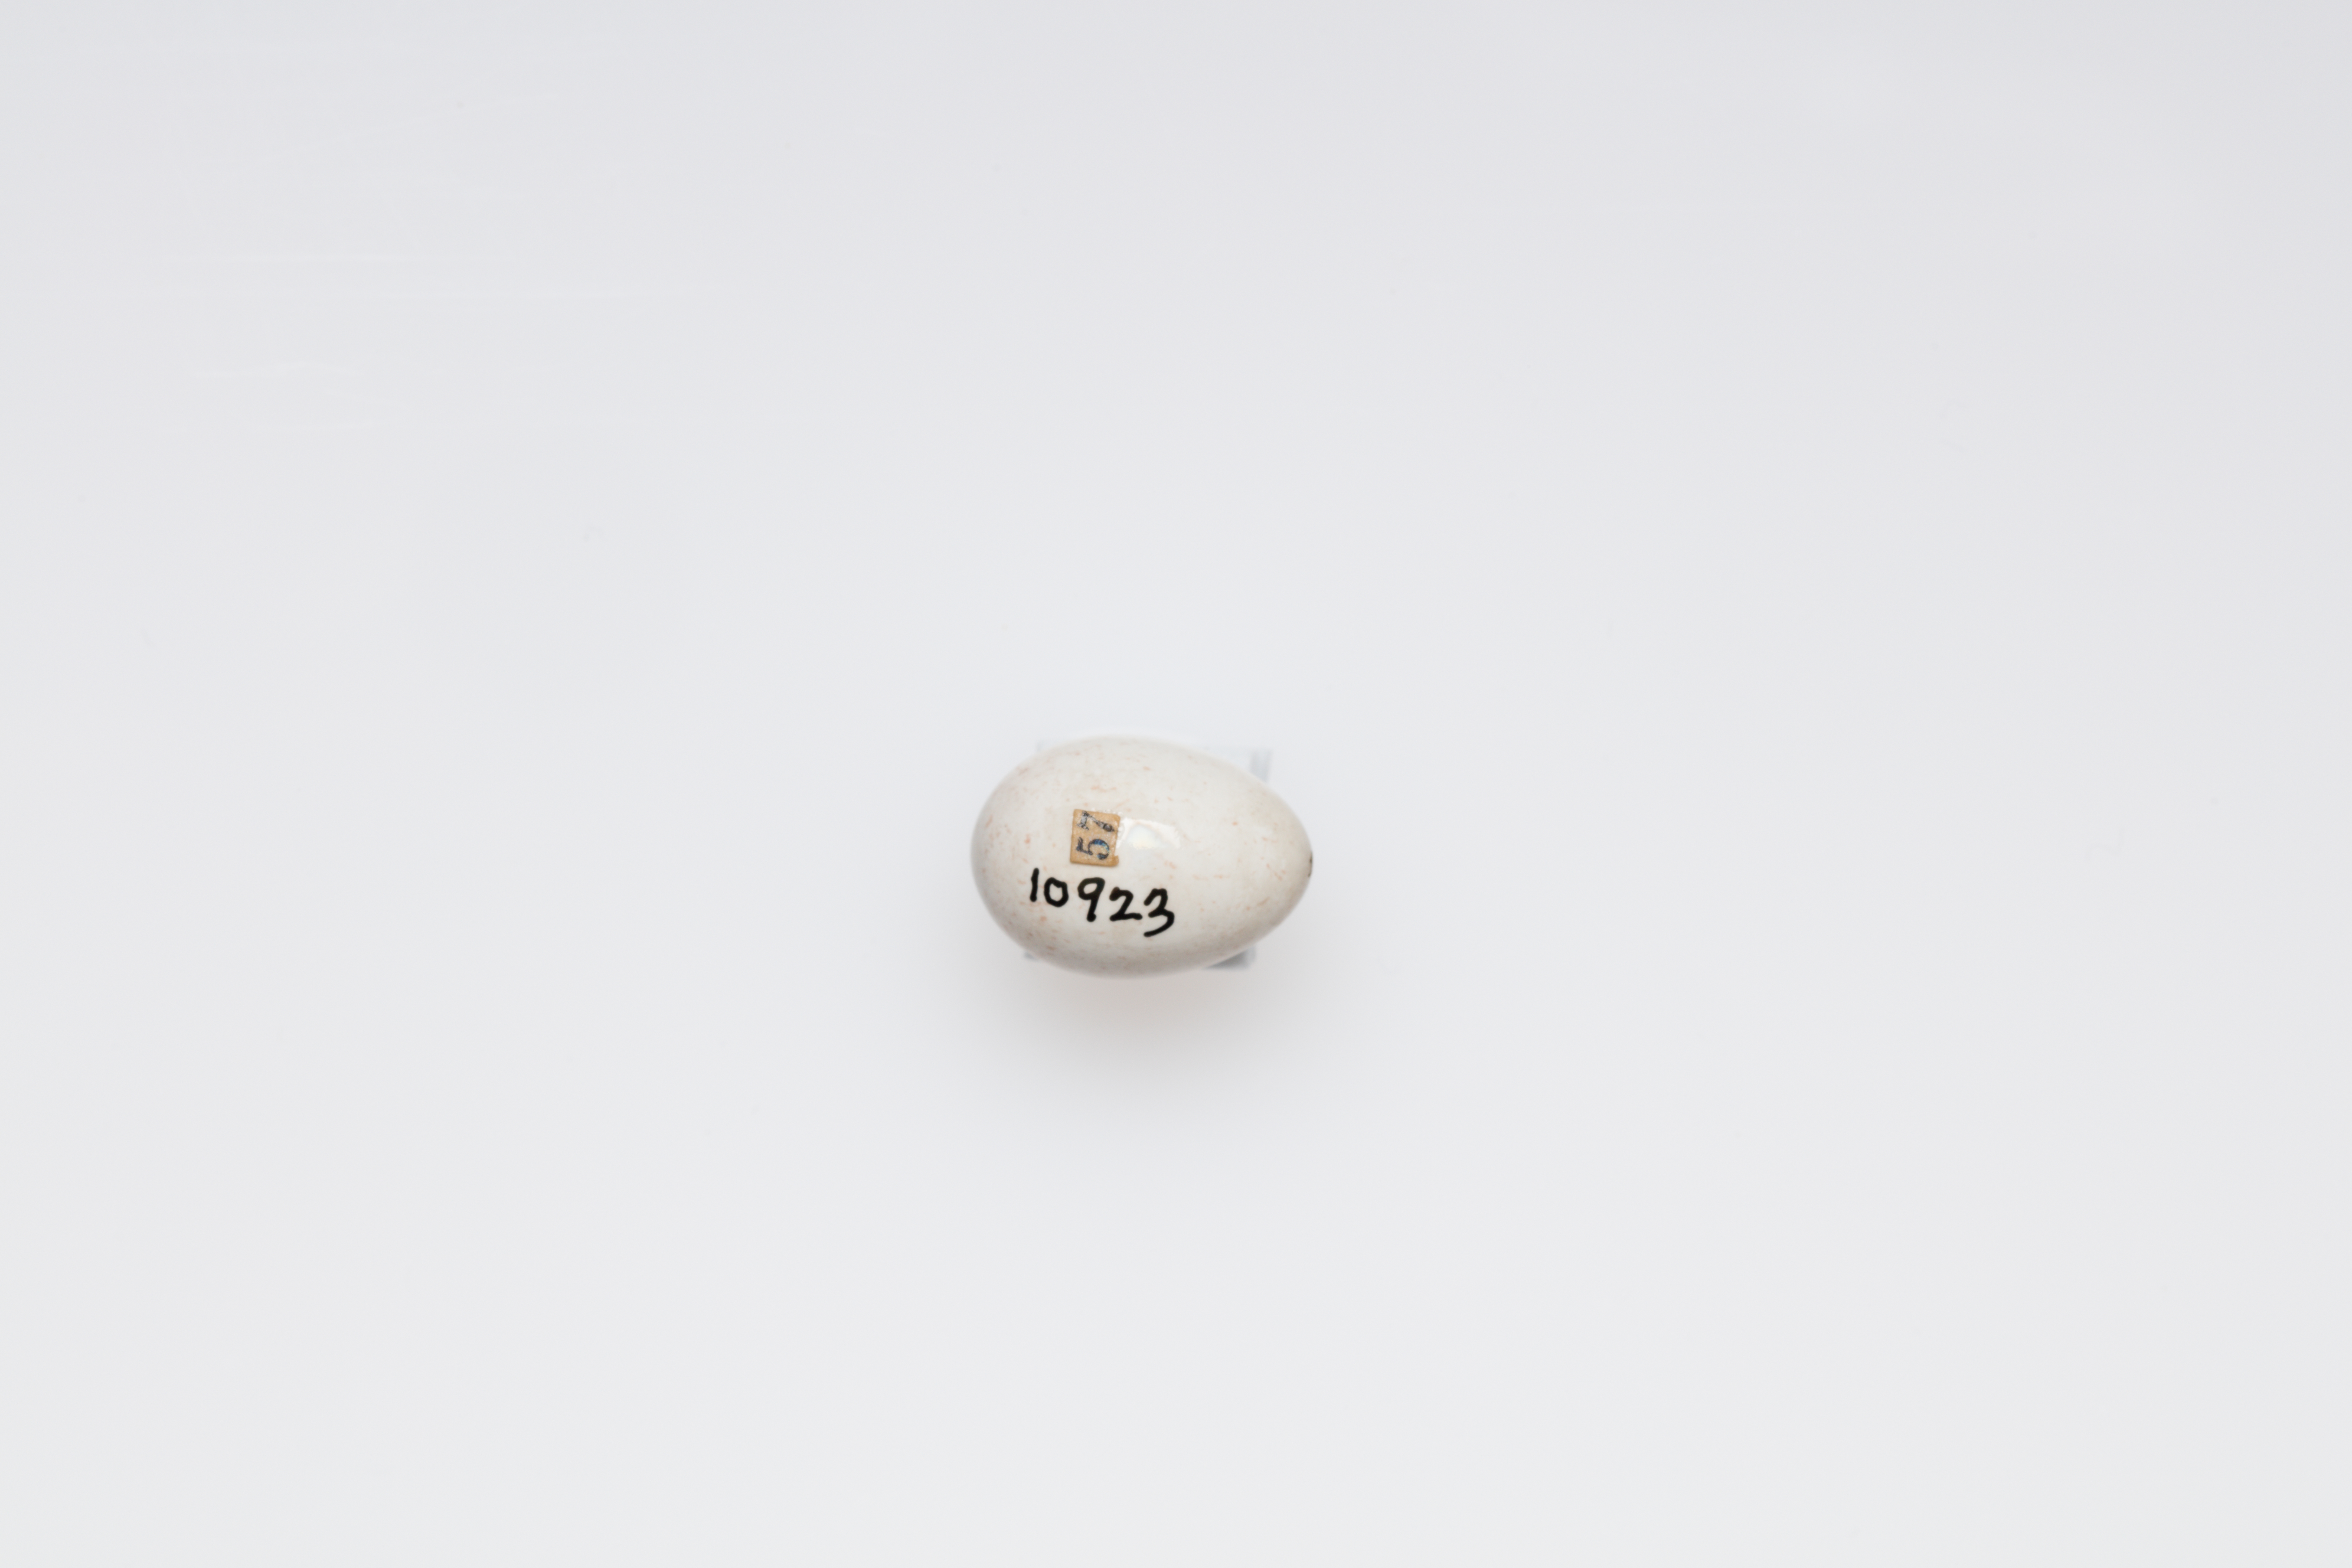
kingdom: Animalia
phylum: Chordata
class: Aves
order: Passeriformes
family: Aegithalidae
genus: Aegithalos
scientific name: Aegithalos caudatus
